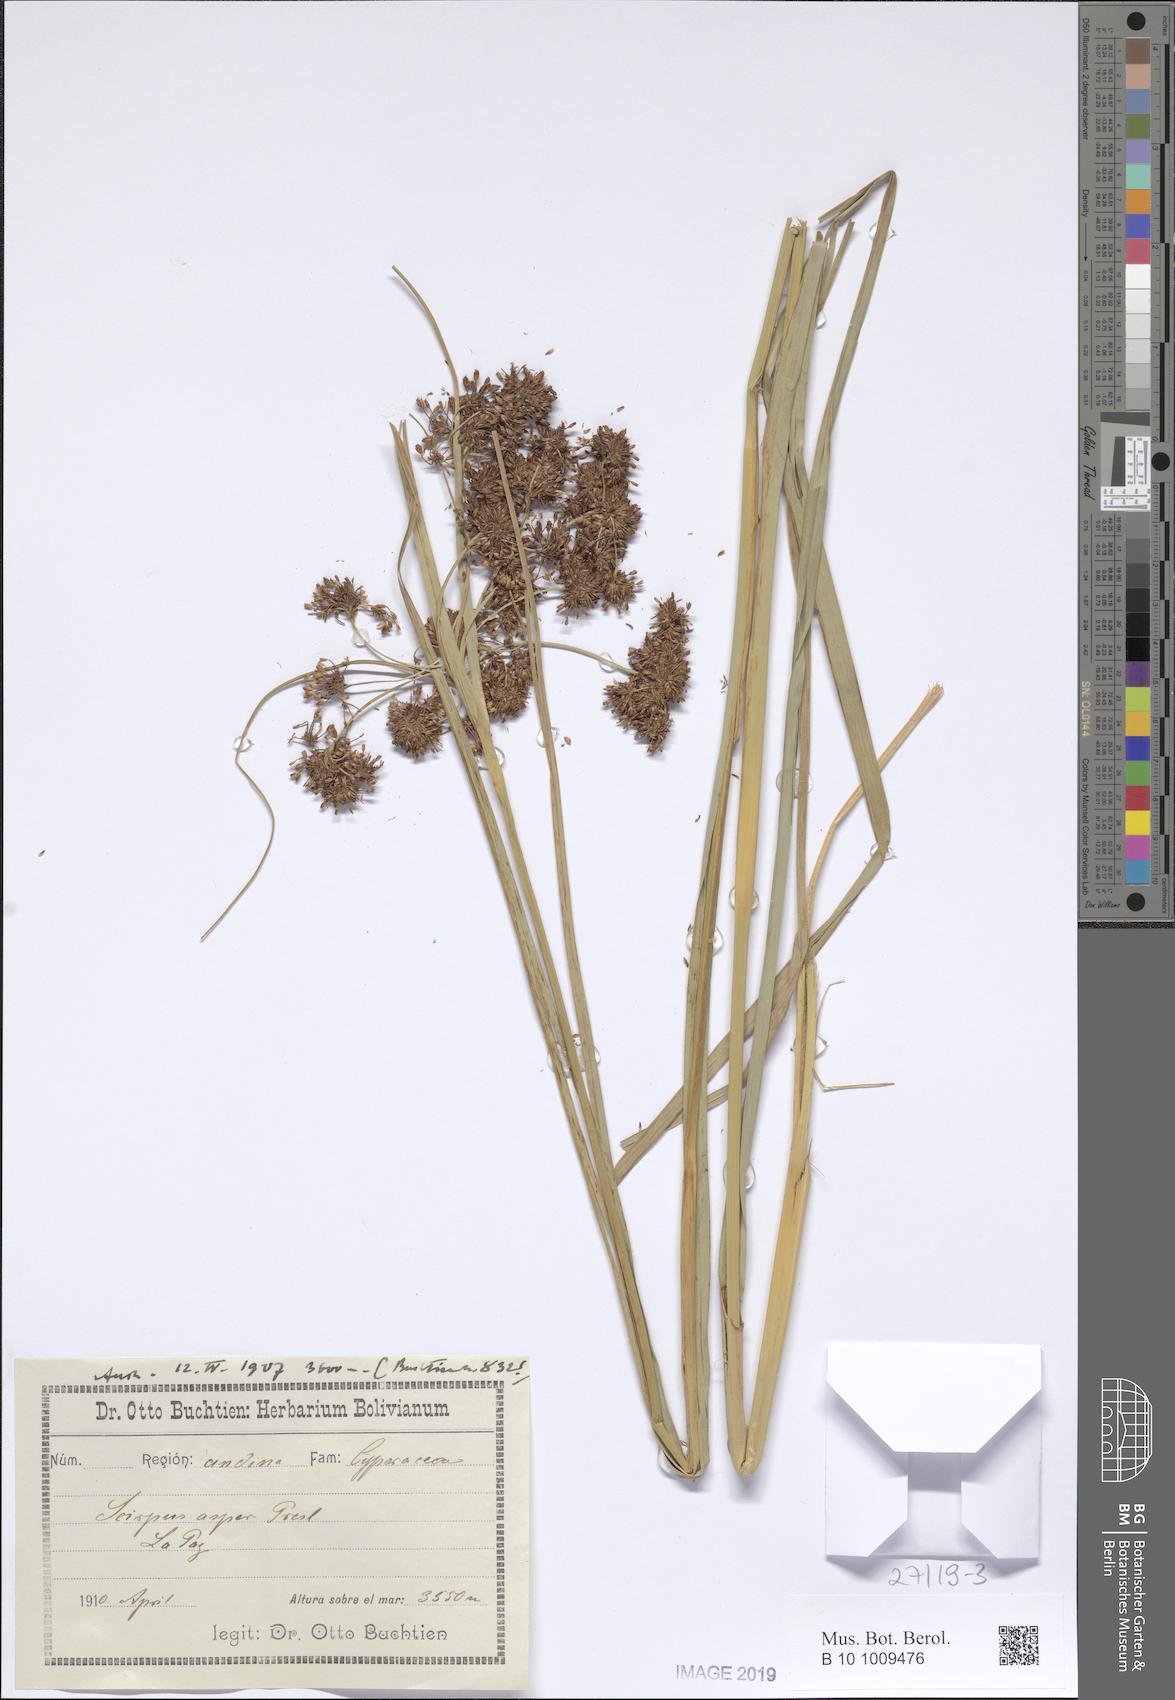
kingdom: Plantae
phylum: Tracheophyta
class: Liliopsida
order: Poales
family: Cyperaceae
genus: Rhodoscirpus
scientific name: Rhodoscirpus asper
